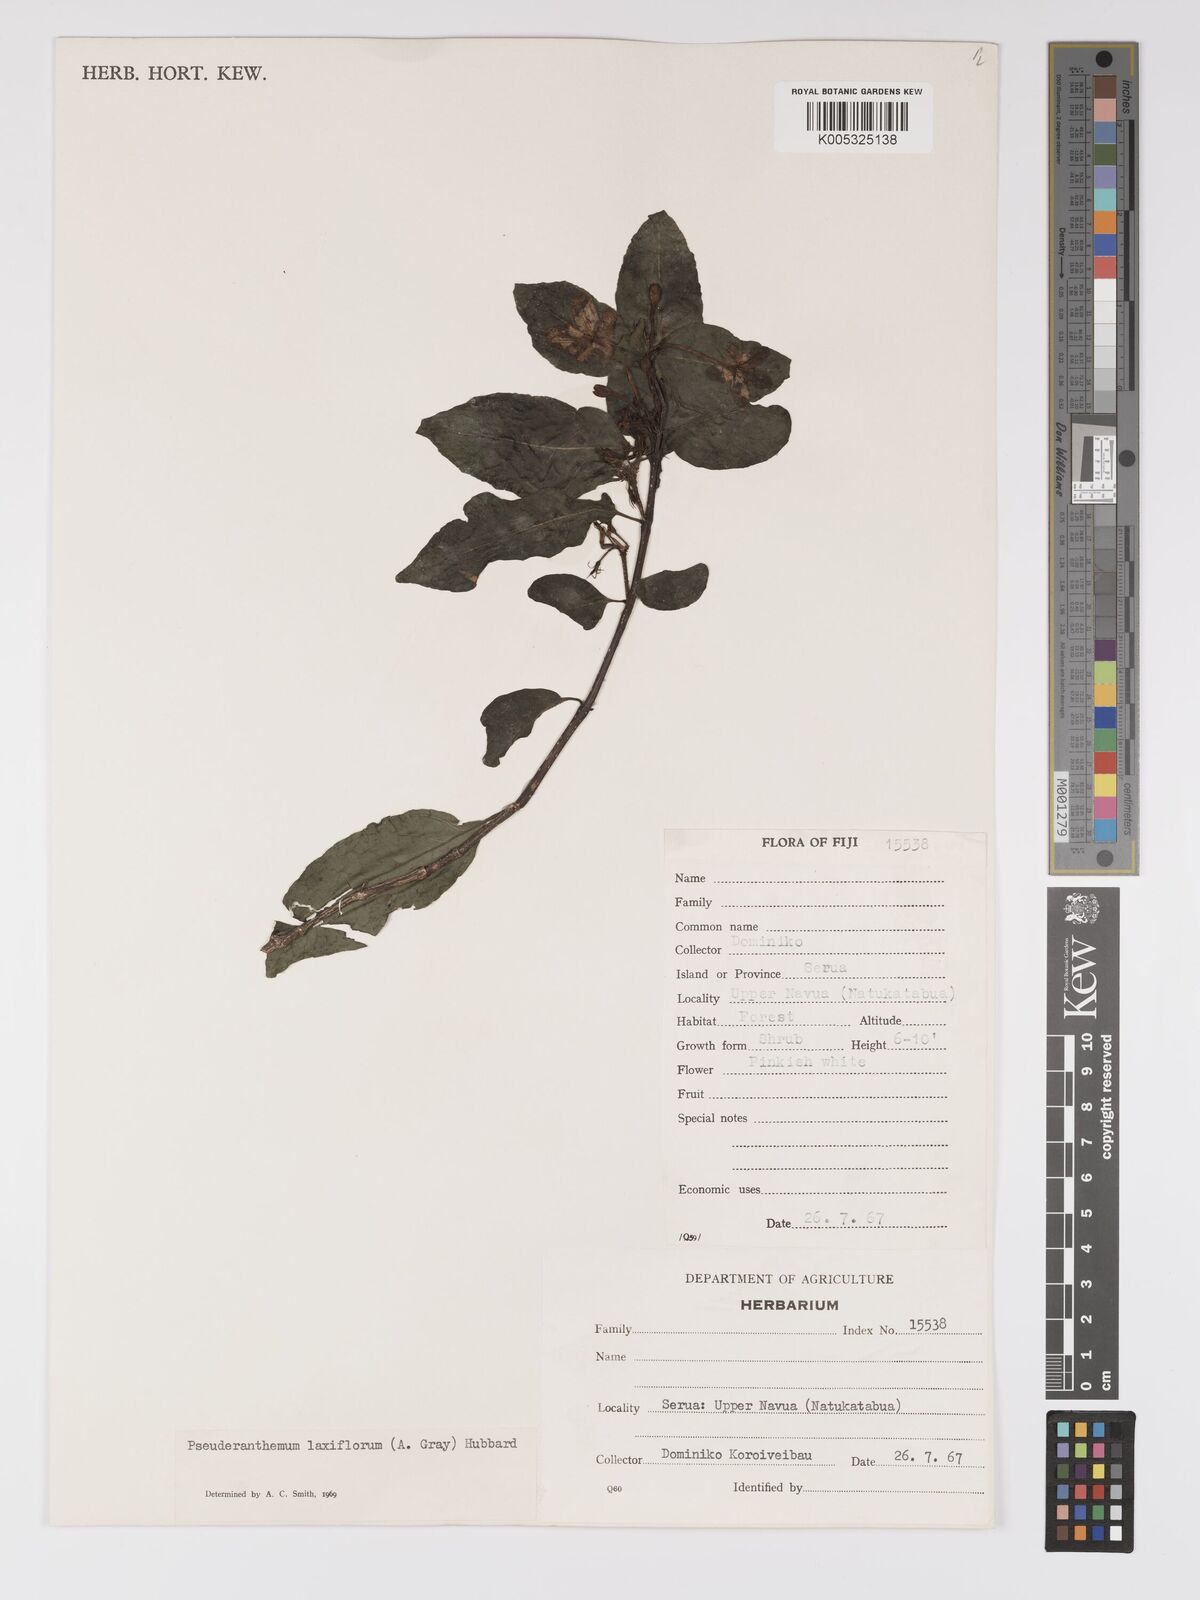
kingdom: Plantae
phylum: Tracheophyta
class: Magnoliopsida
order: Lamiales
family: Acanthaceae
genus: Pseuderanthemum
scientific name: Pseuderanthemum laxiflorum
